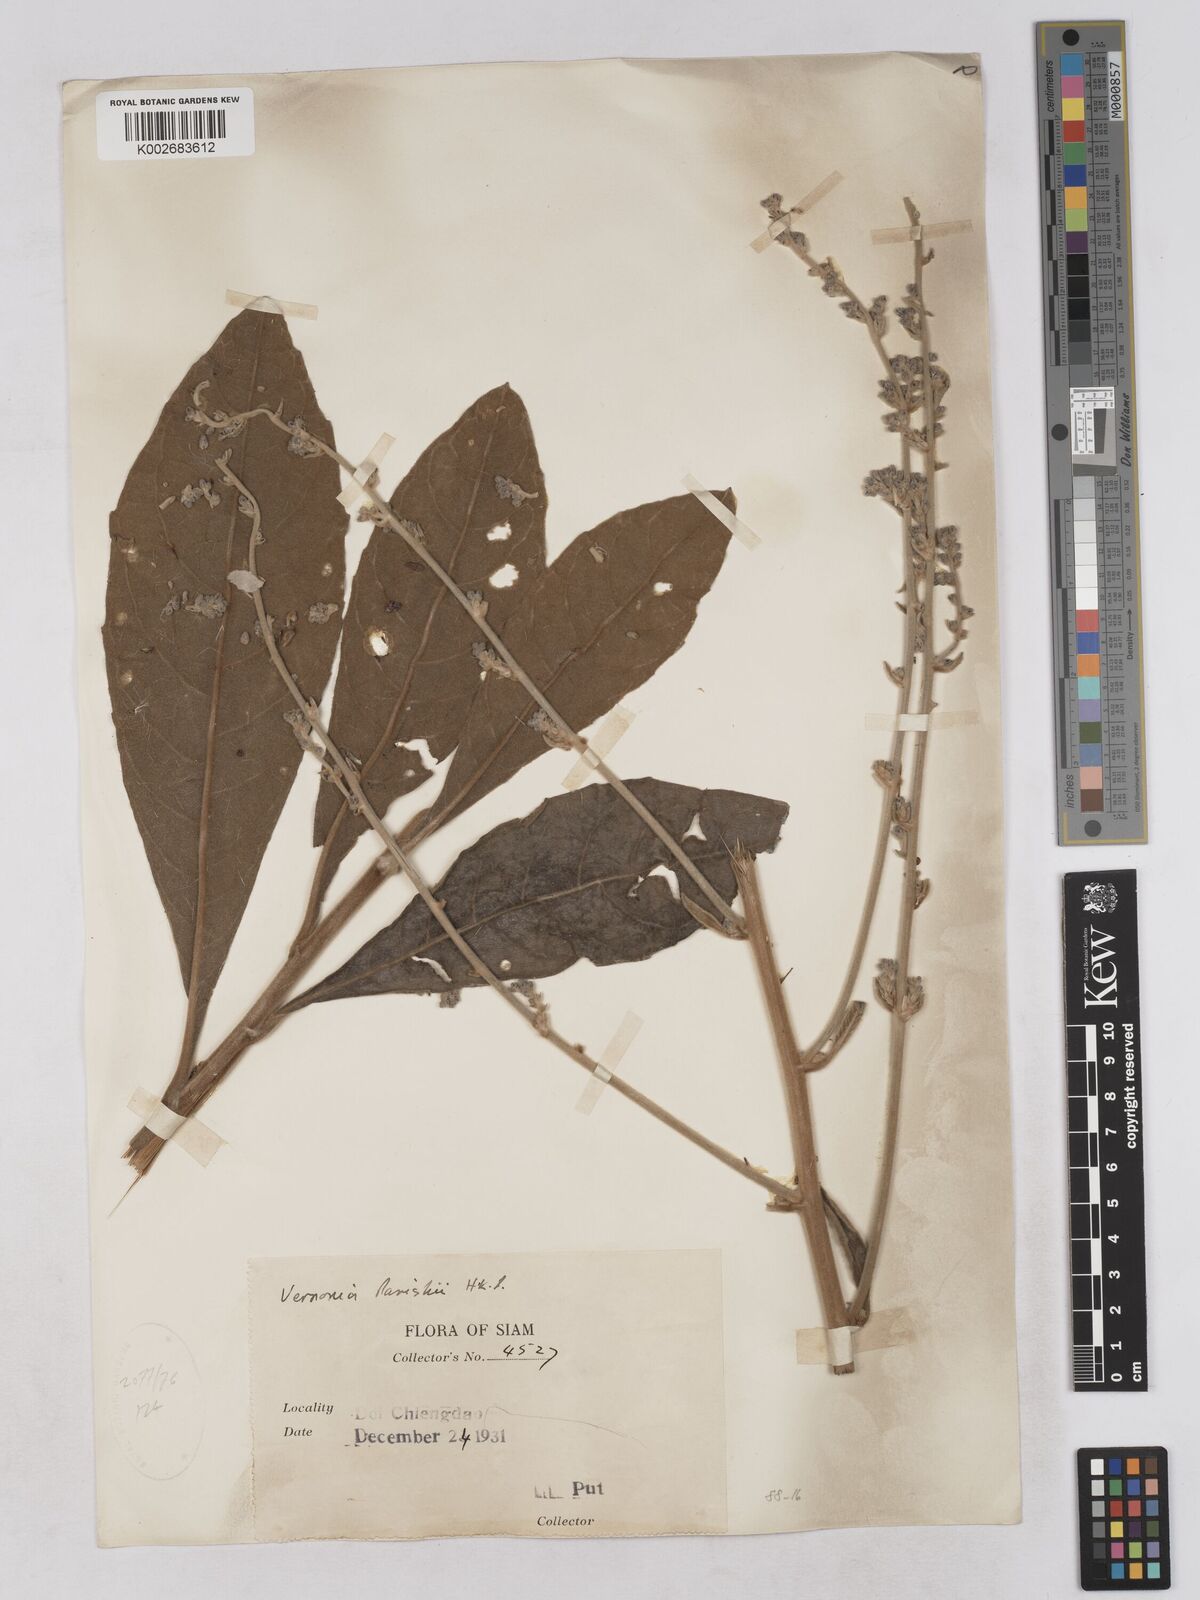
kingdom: Plantae
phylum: Tracheophyta
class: Magnoliopsida
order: Asterales
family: Asteraceae
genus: Monosis
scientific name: Monosis parishii
